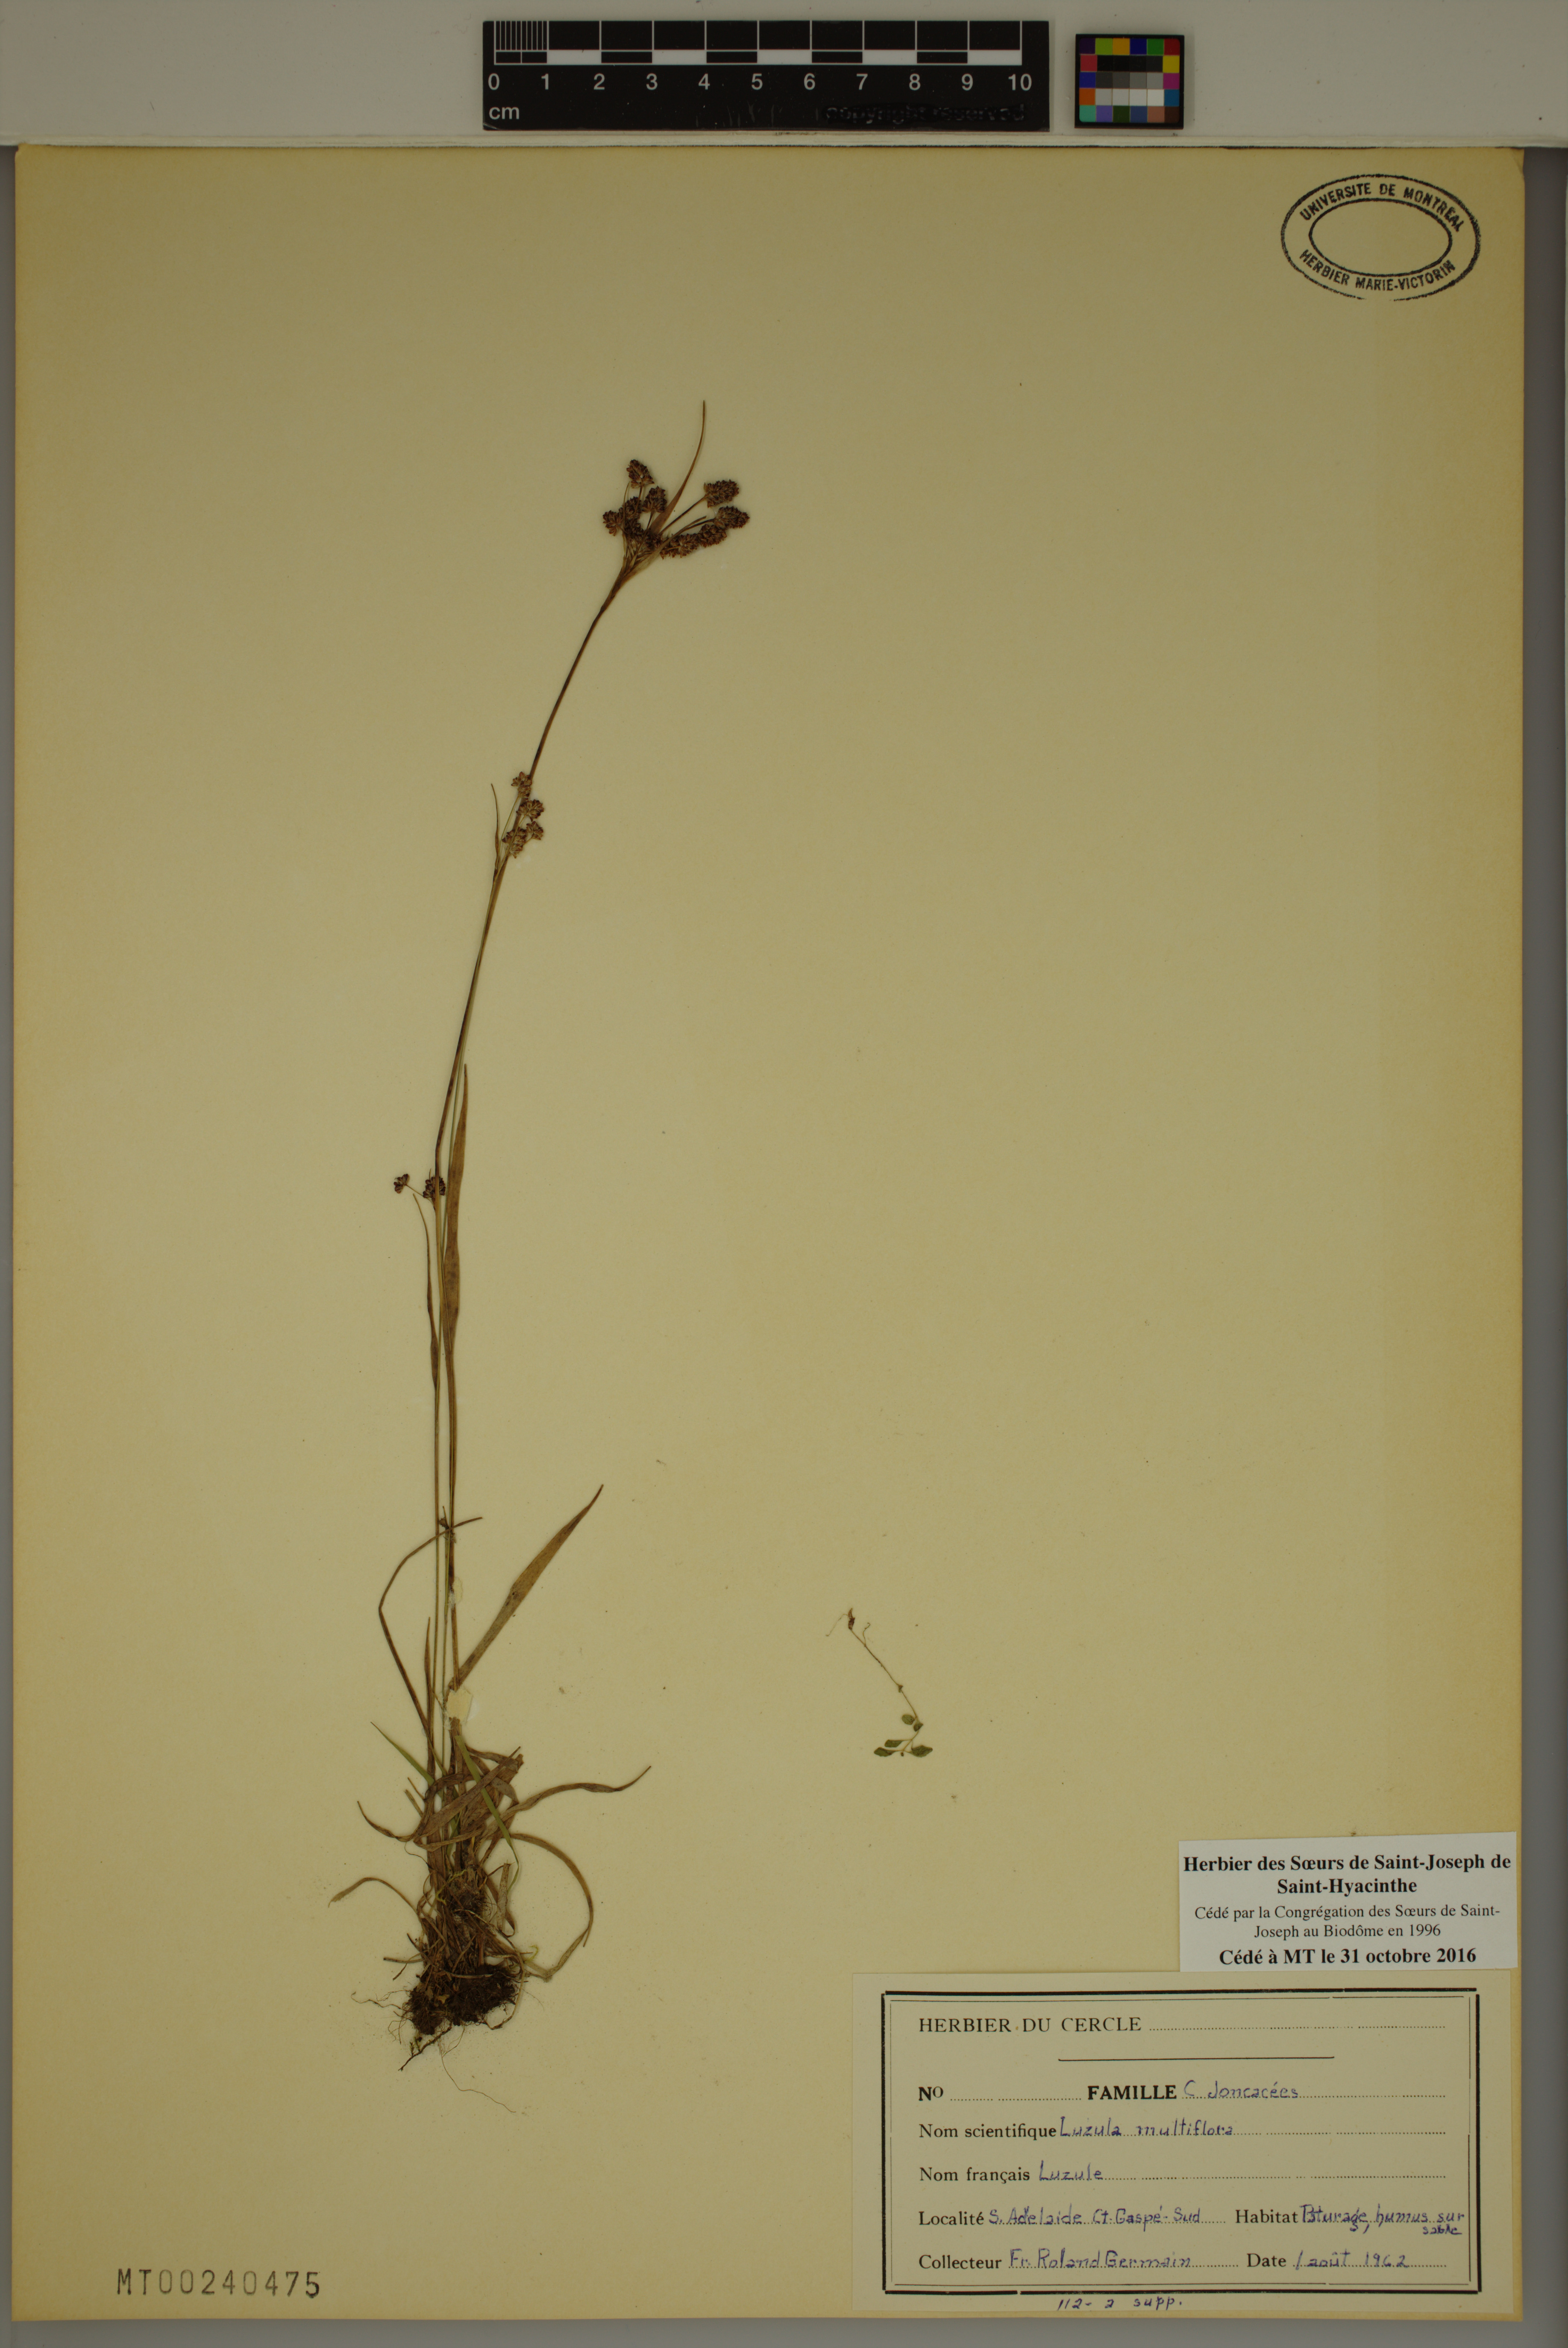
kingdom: Plantae
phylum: Tracheophyta
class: Liliopsida
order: Poales
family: Juncaceae
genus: Luzula
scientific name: Luzula multiflora
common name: Heath wood-rush
